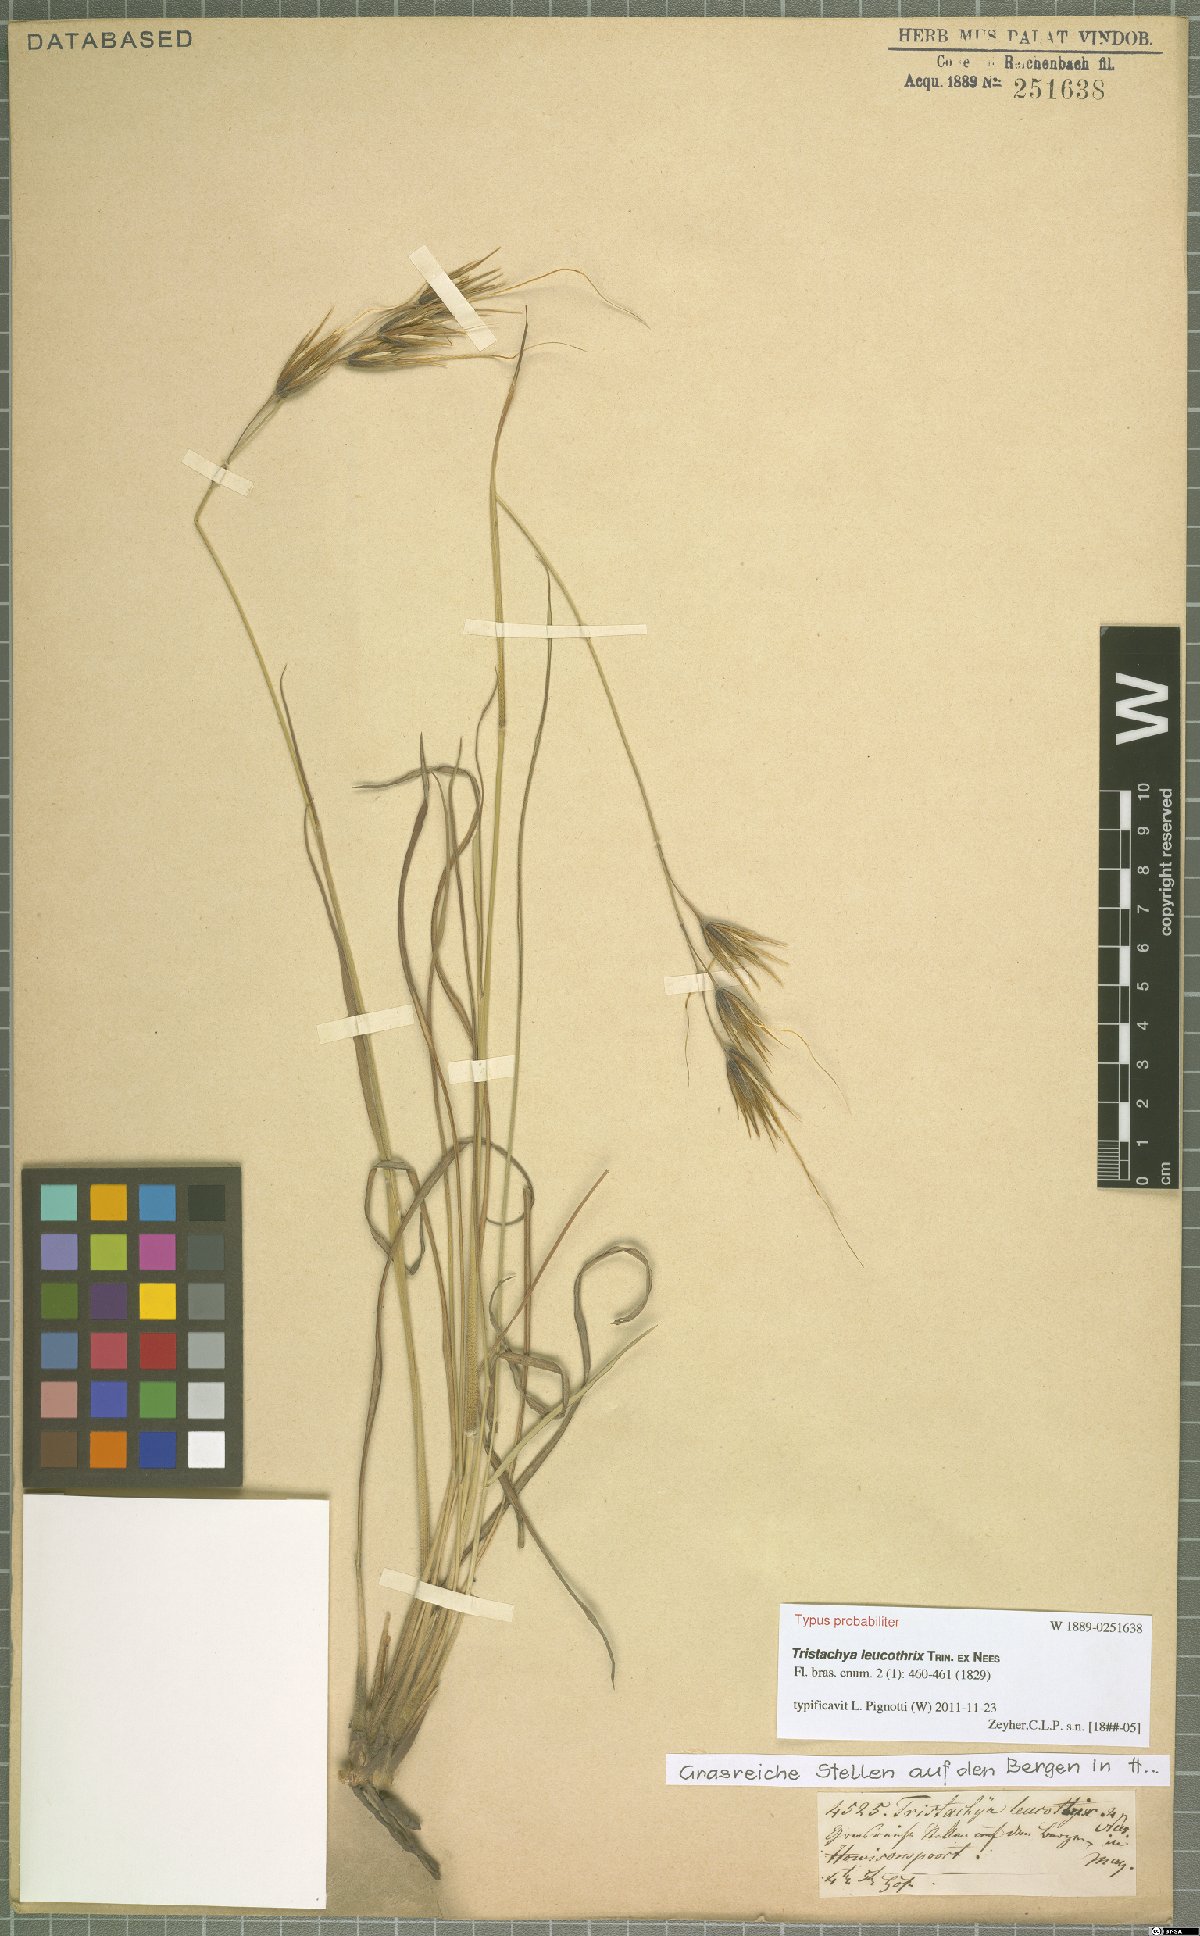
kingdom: Plantae
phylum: Tracheophyta
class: Liliopsida
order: Poales
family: Poaceae
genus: Tristachya
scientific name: Tristachya leucothrix
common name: Trident grass
